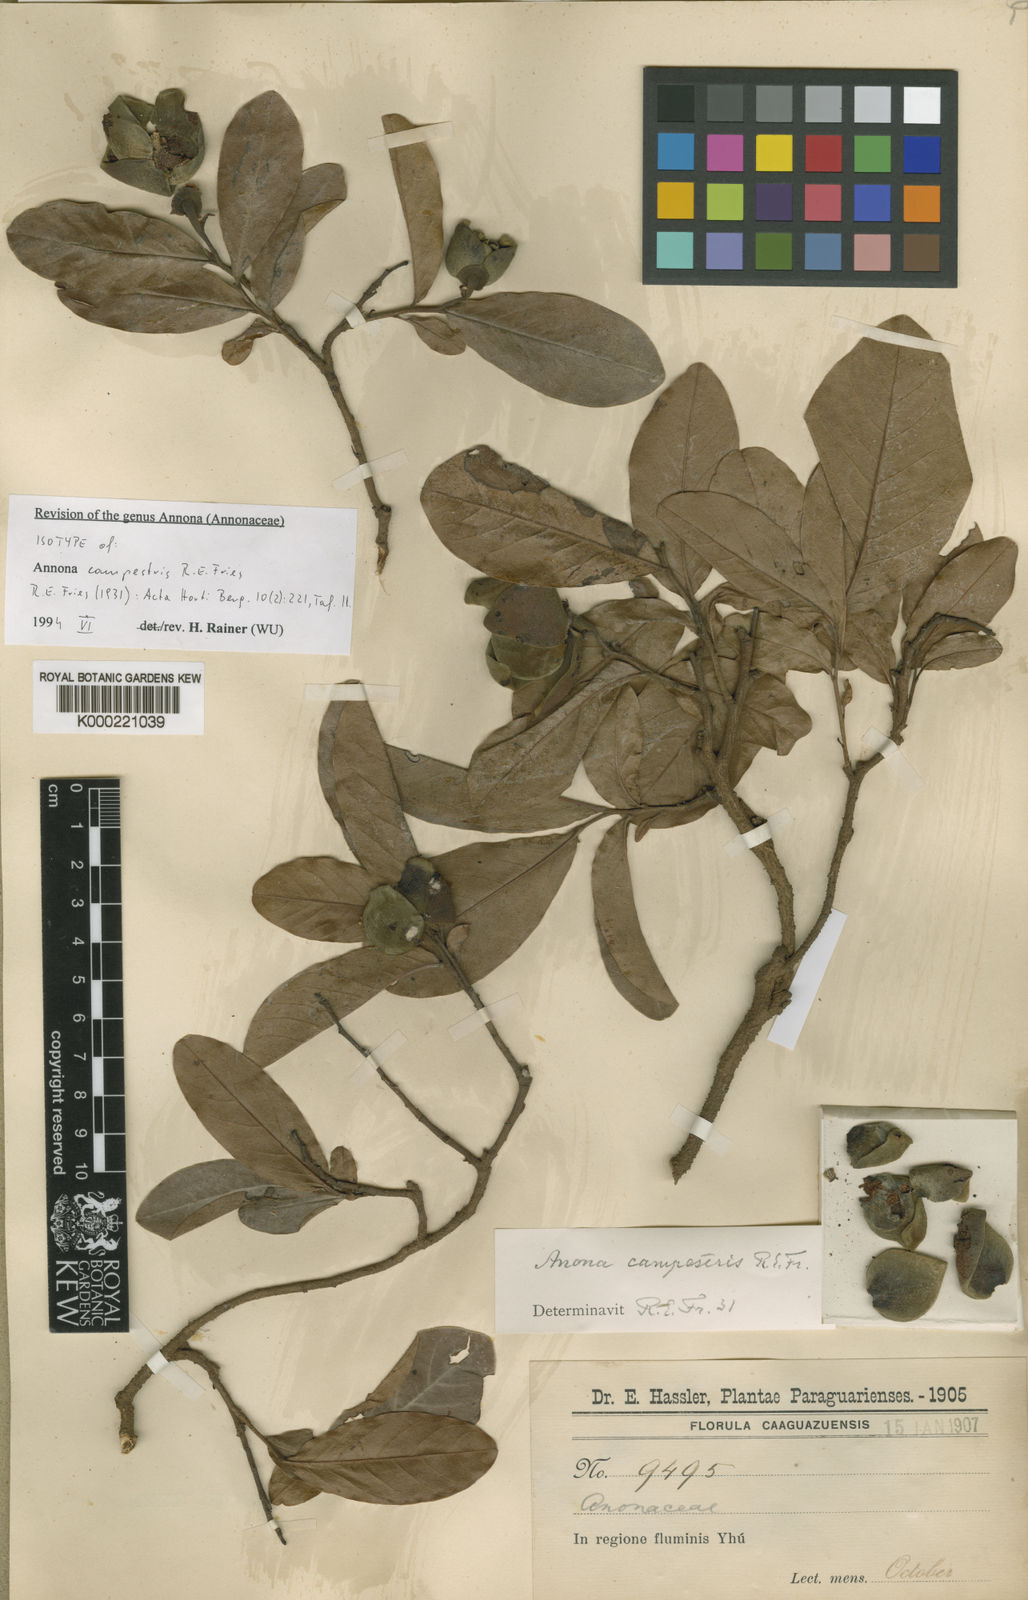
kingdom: Plantae
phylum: Tracheophyta
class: Magnoliopsida
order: Magnoliales
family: Annonaceae
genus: Annona
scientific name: Annona campestris
